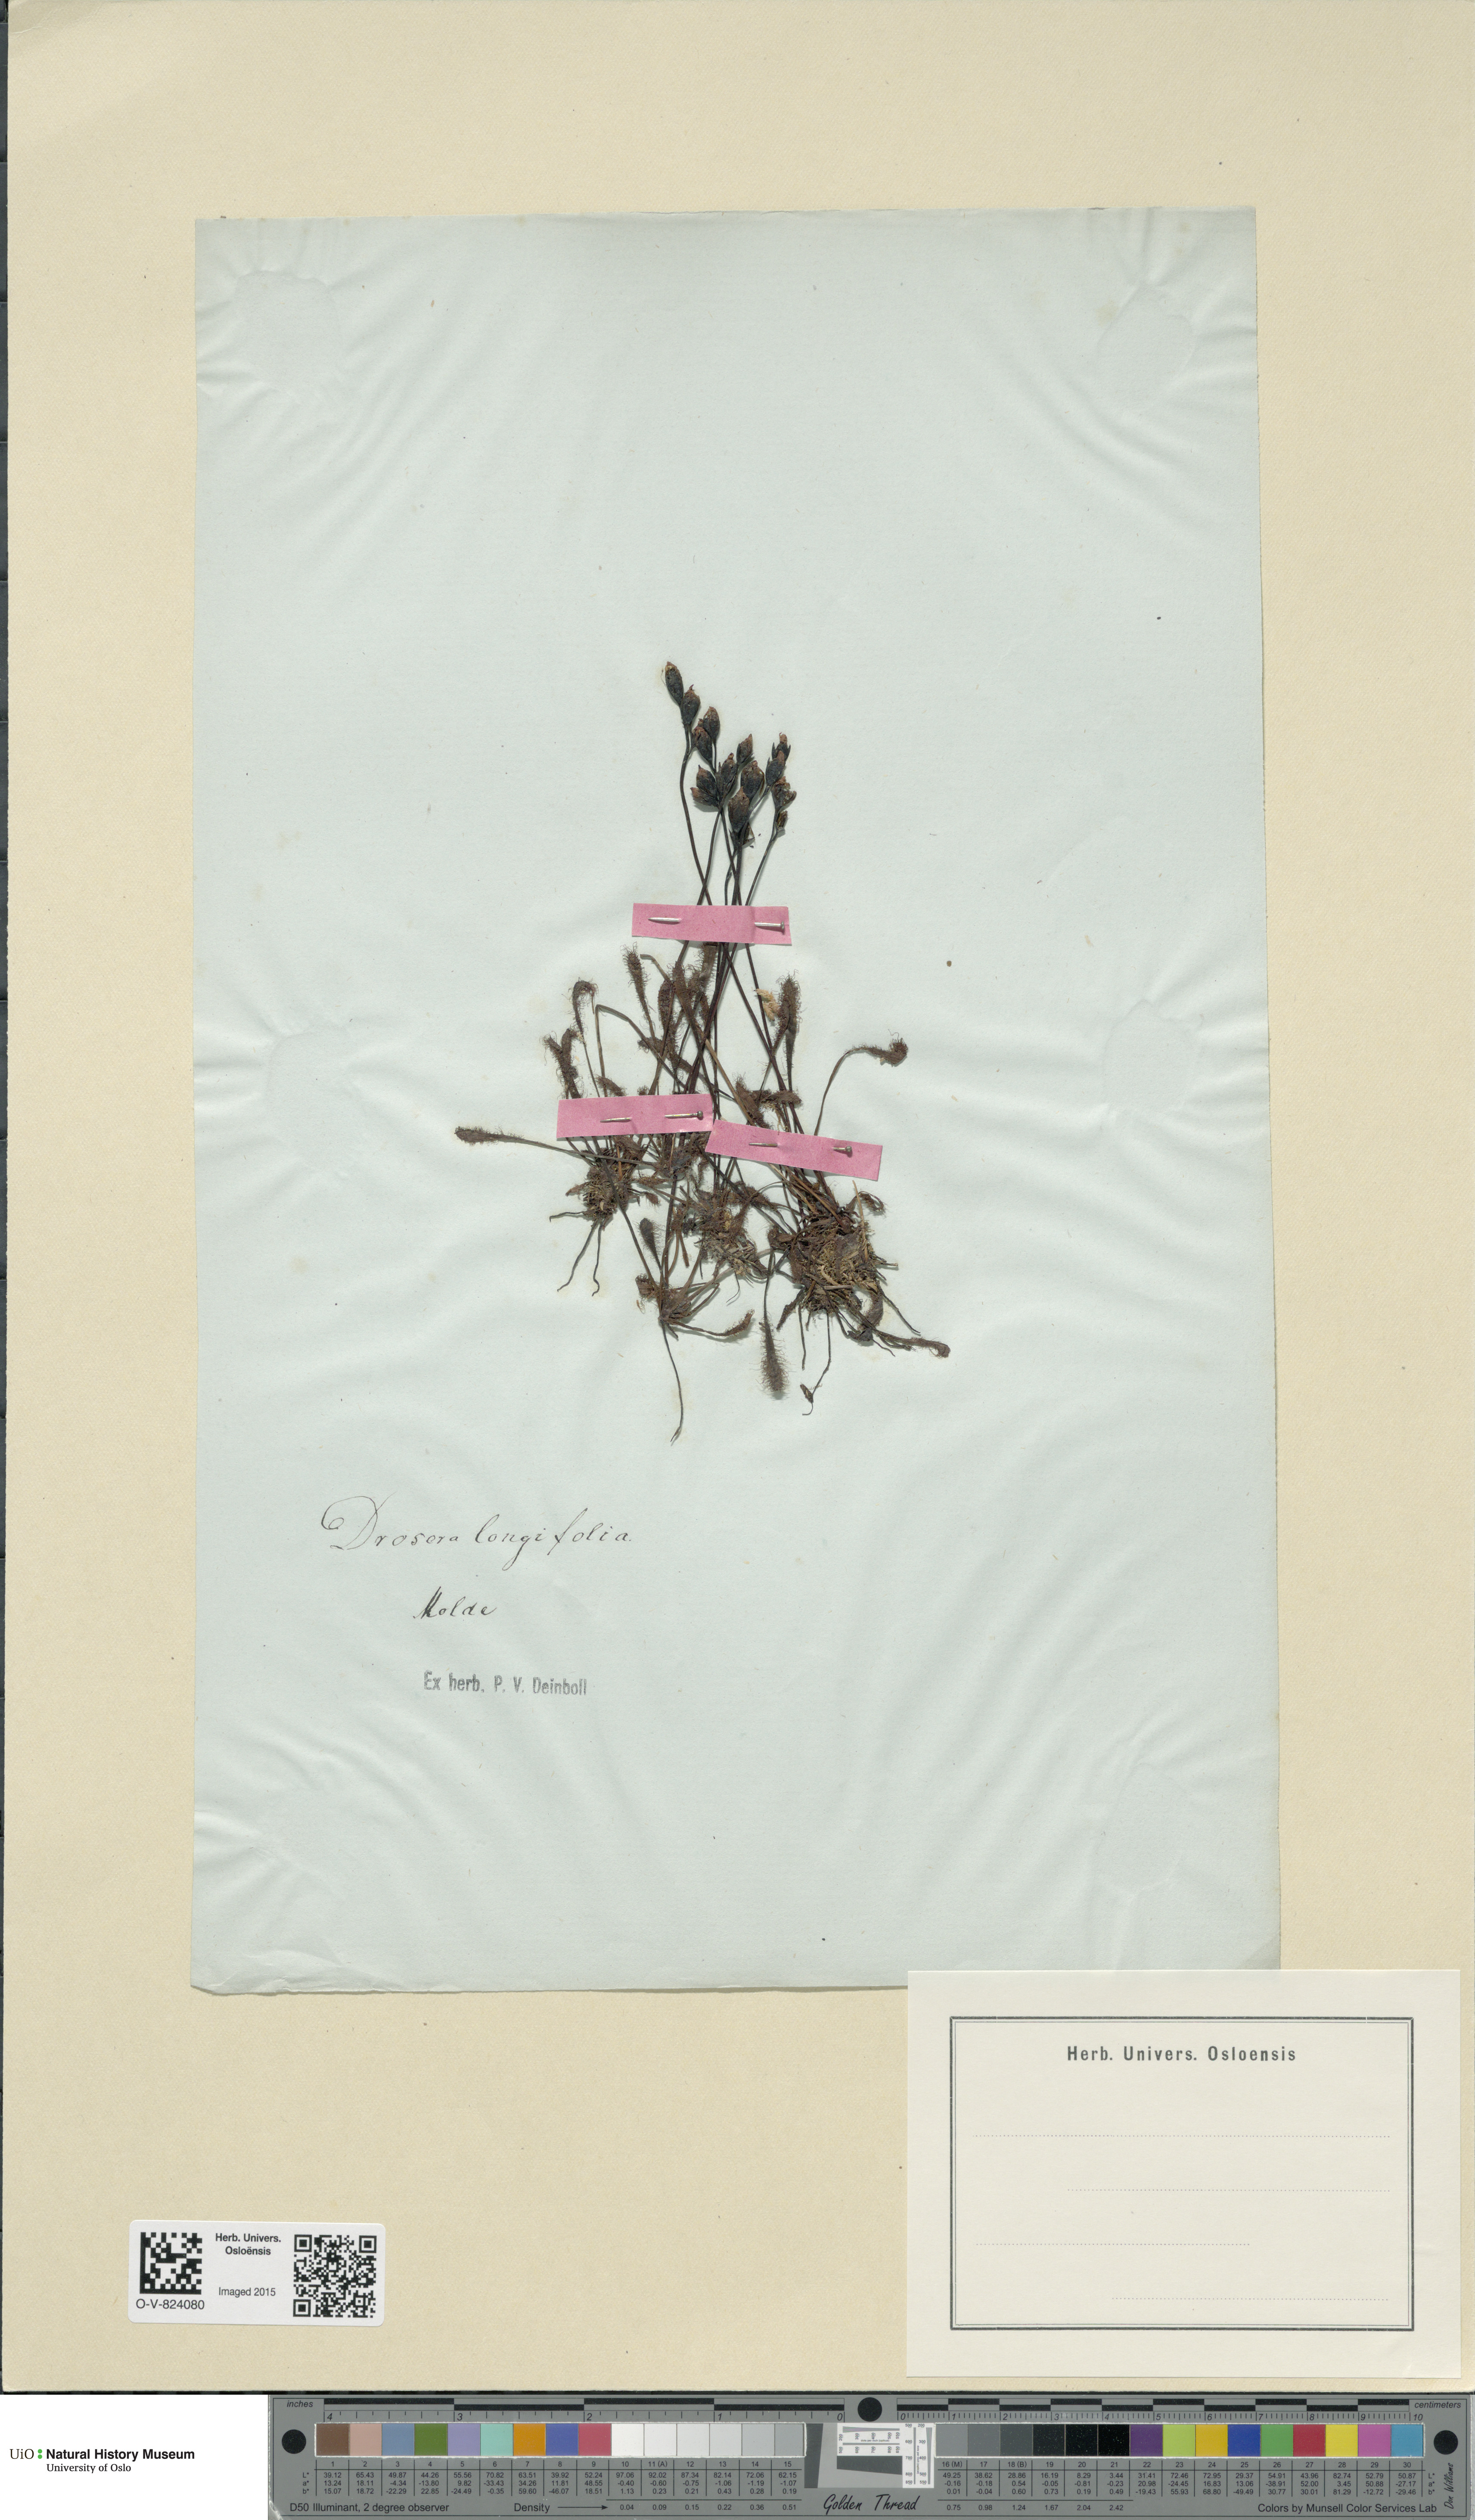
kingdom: Plantae
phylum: Tracheophyta
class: Magnoliopsida
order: Caryophyllales
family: Droseraceae
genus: Drosera
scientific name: Drosera anglica
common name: Great sundew
